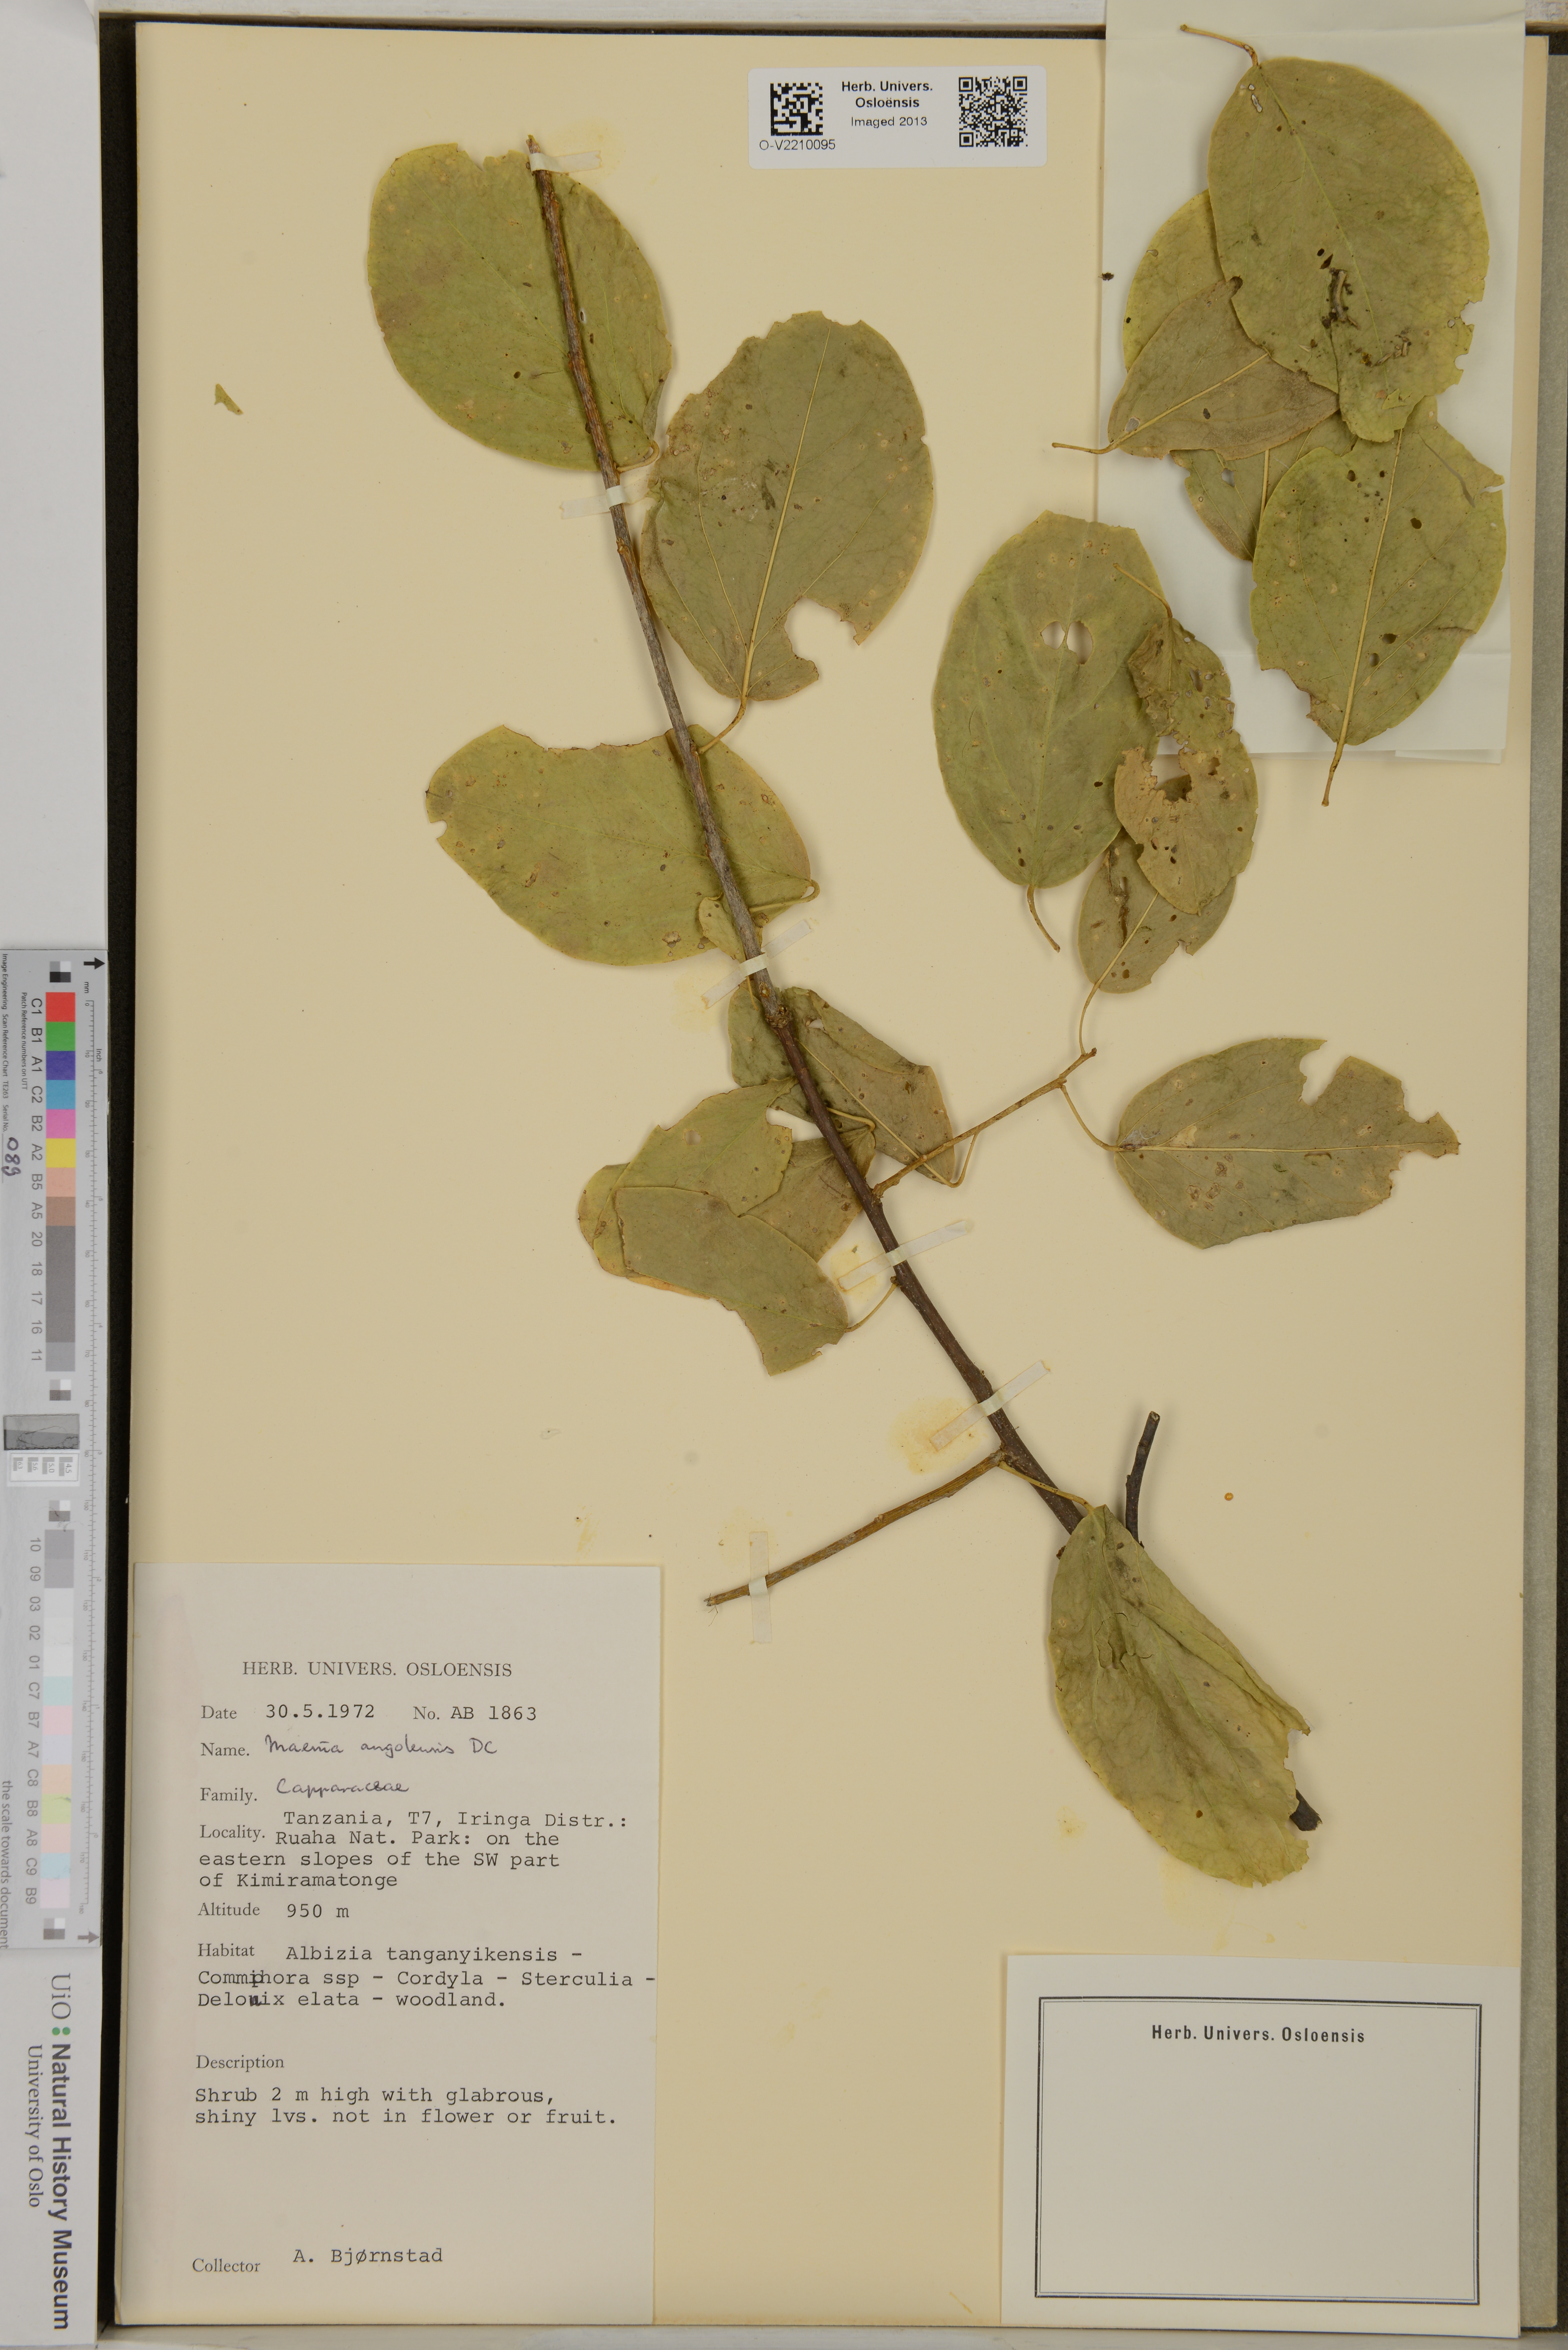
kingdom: Plantae
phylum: Tracheophyta
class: Magnoliopsida
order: Brassicales
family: Capparaceae
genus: Maerua
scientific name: Maerua angolensis
